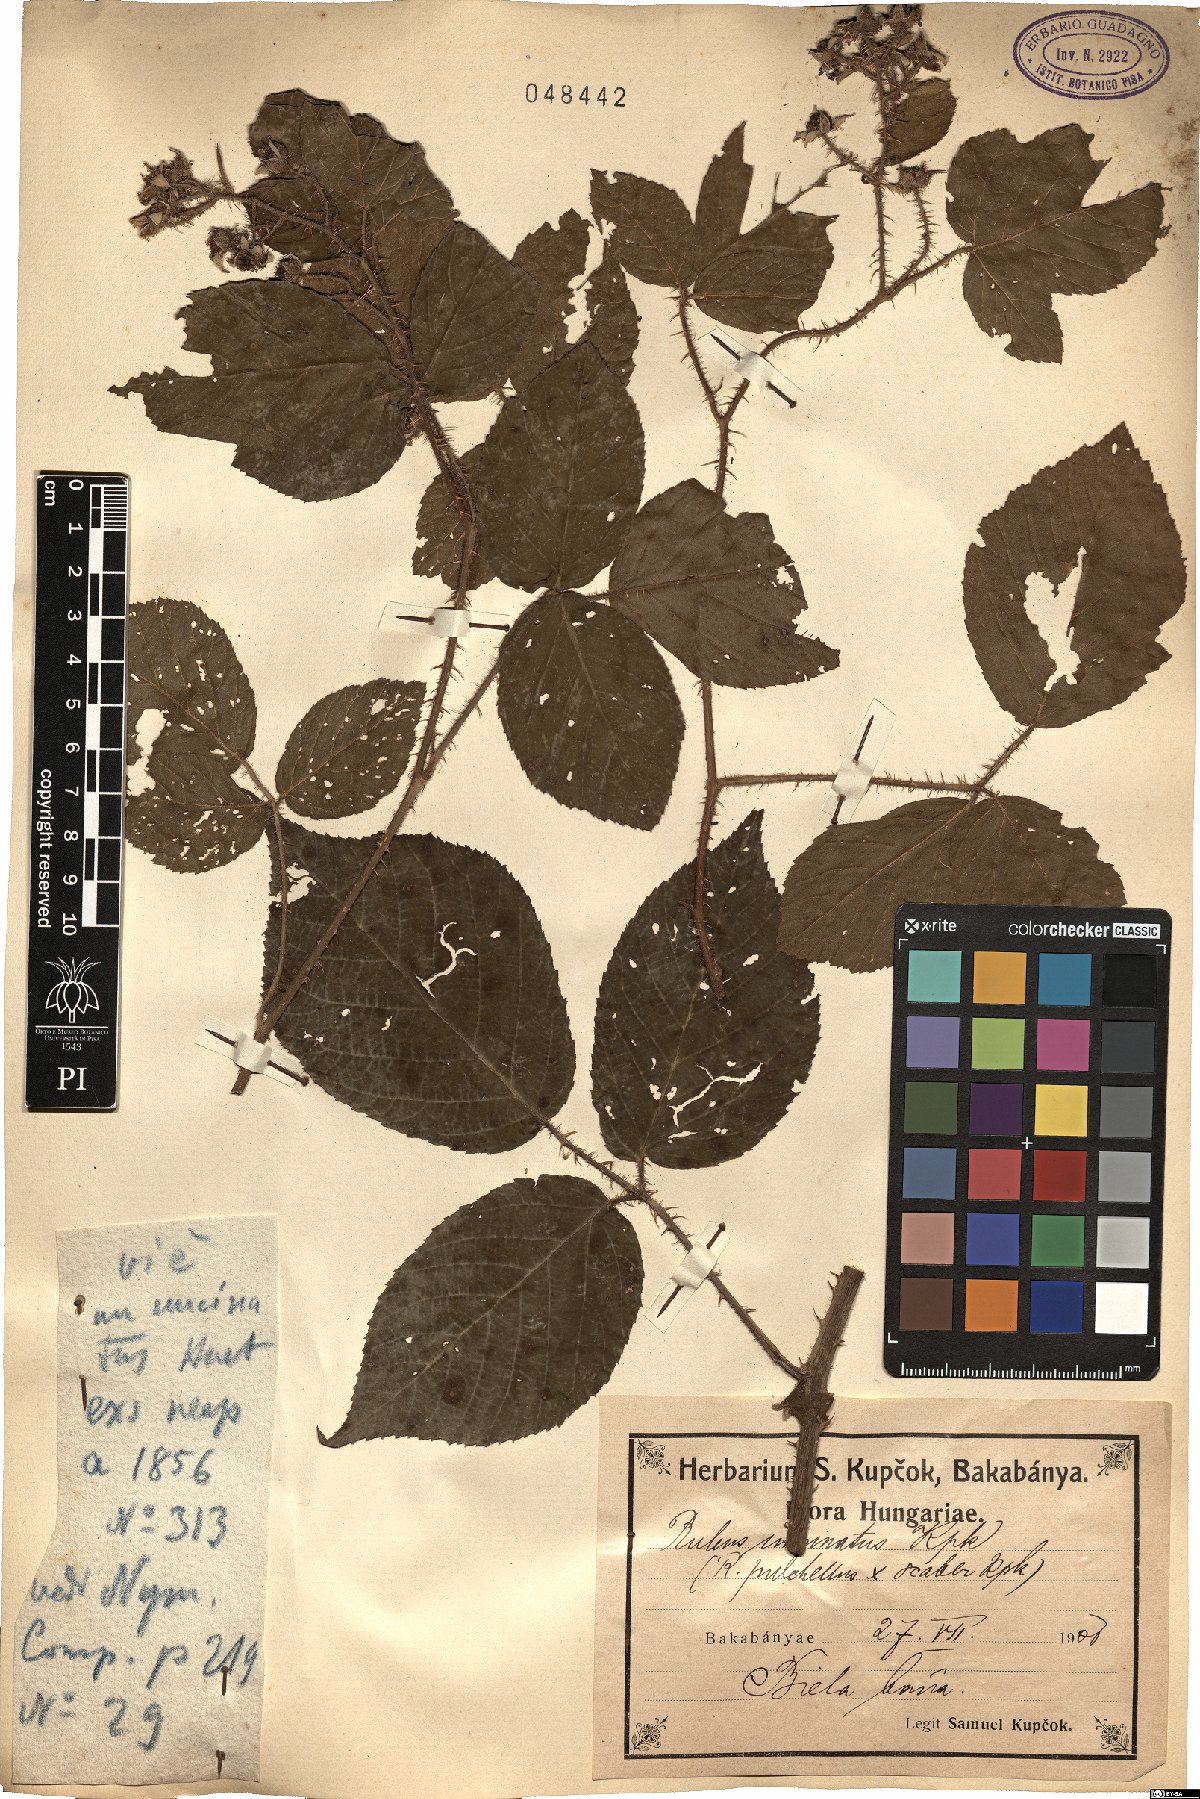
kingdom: Plantae
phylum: Tracheophyta
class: Magnoliopsida
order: Rosales
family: Rosaceae
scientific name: Rosaceae
